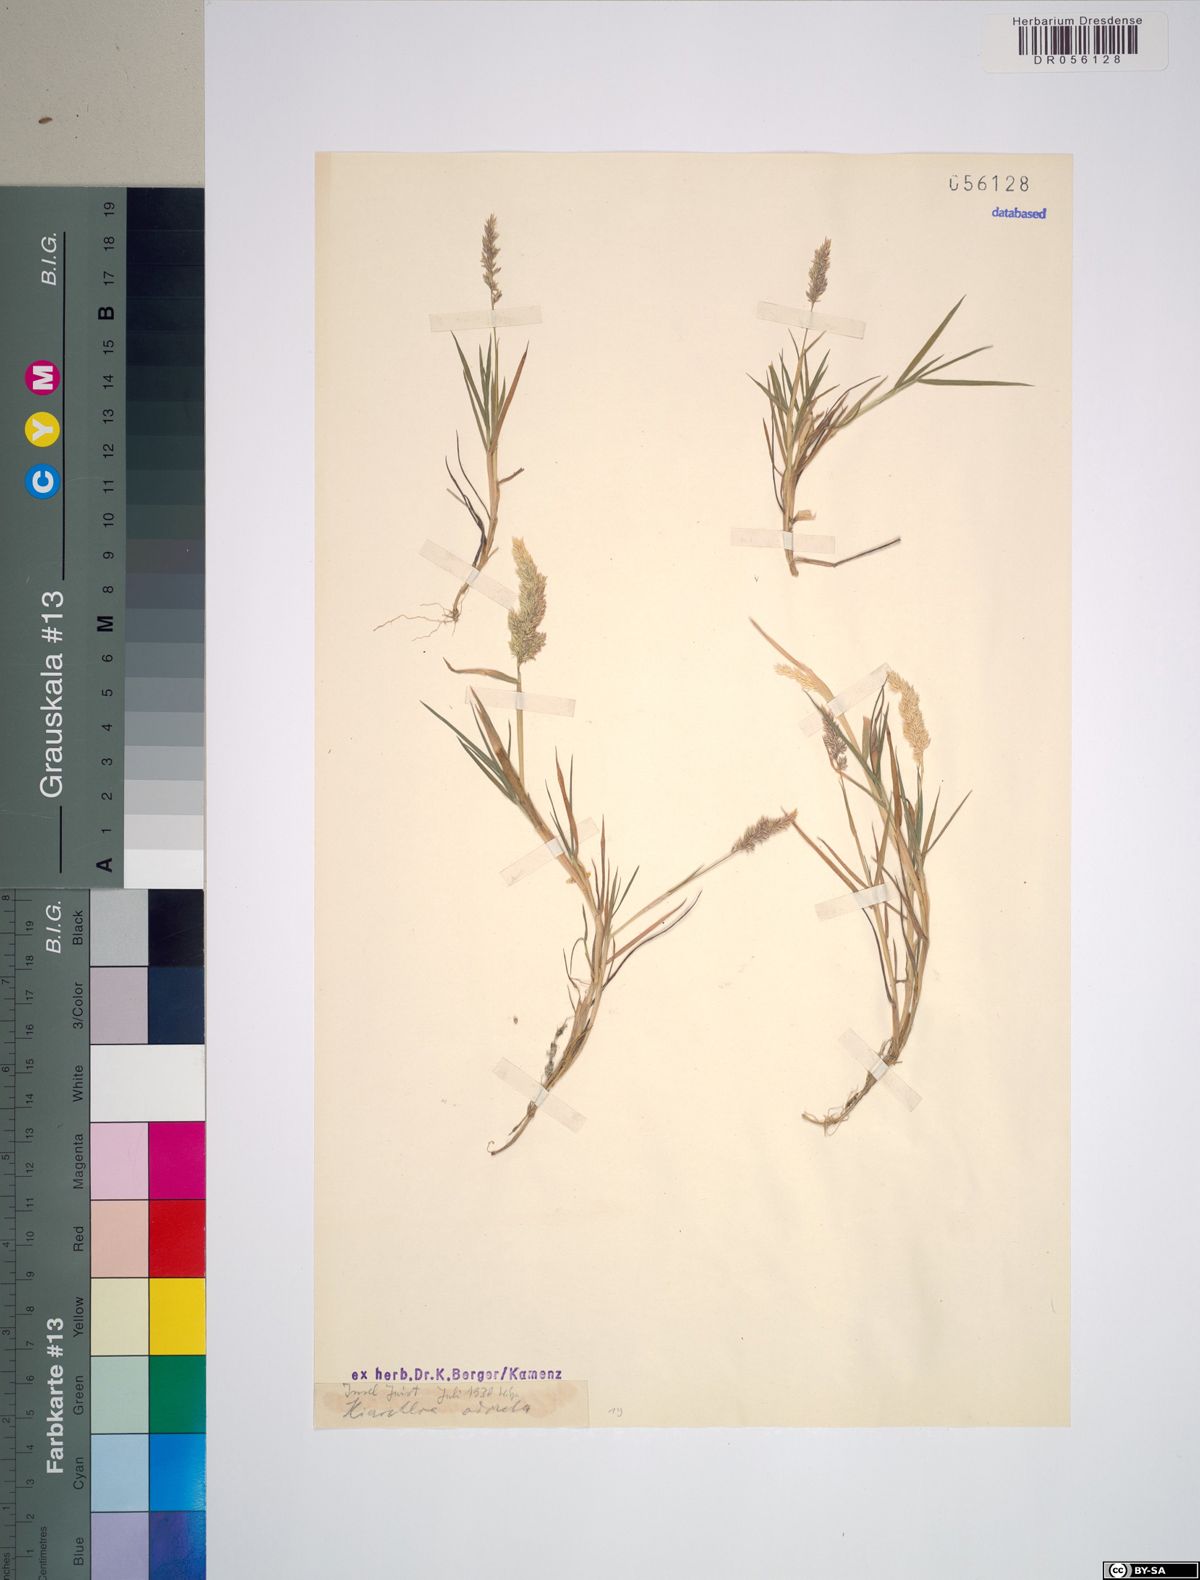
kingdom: Plantae
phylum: Tracheophyta
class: Liliopsida
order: Poales
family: Poaceae
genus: Anthoxanthum
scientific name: Anthoxanthum nitens
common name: Holy grass
